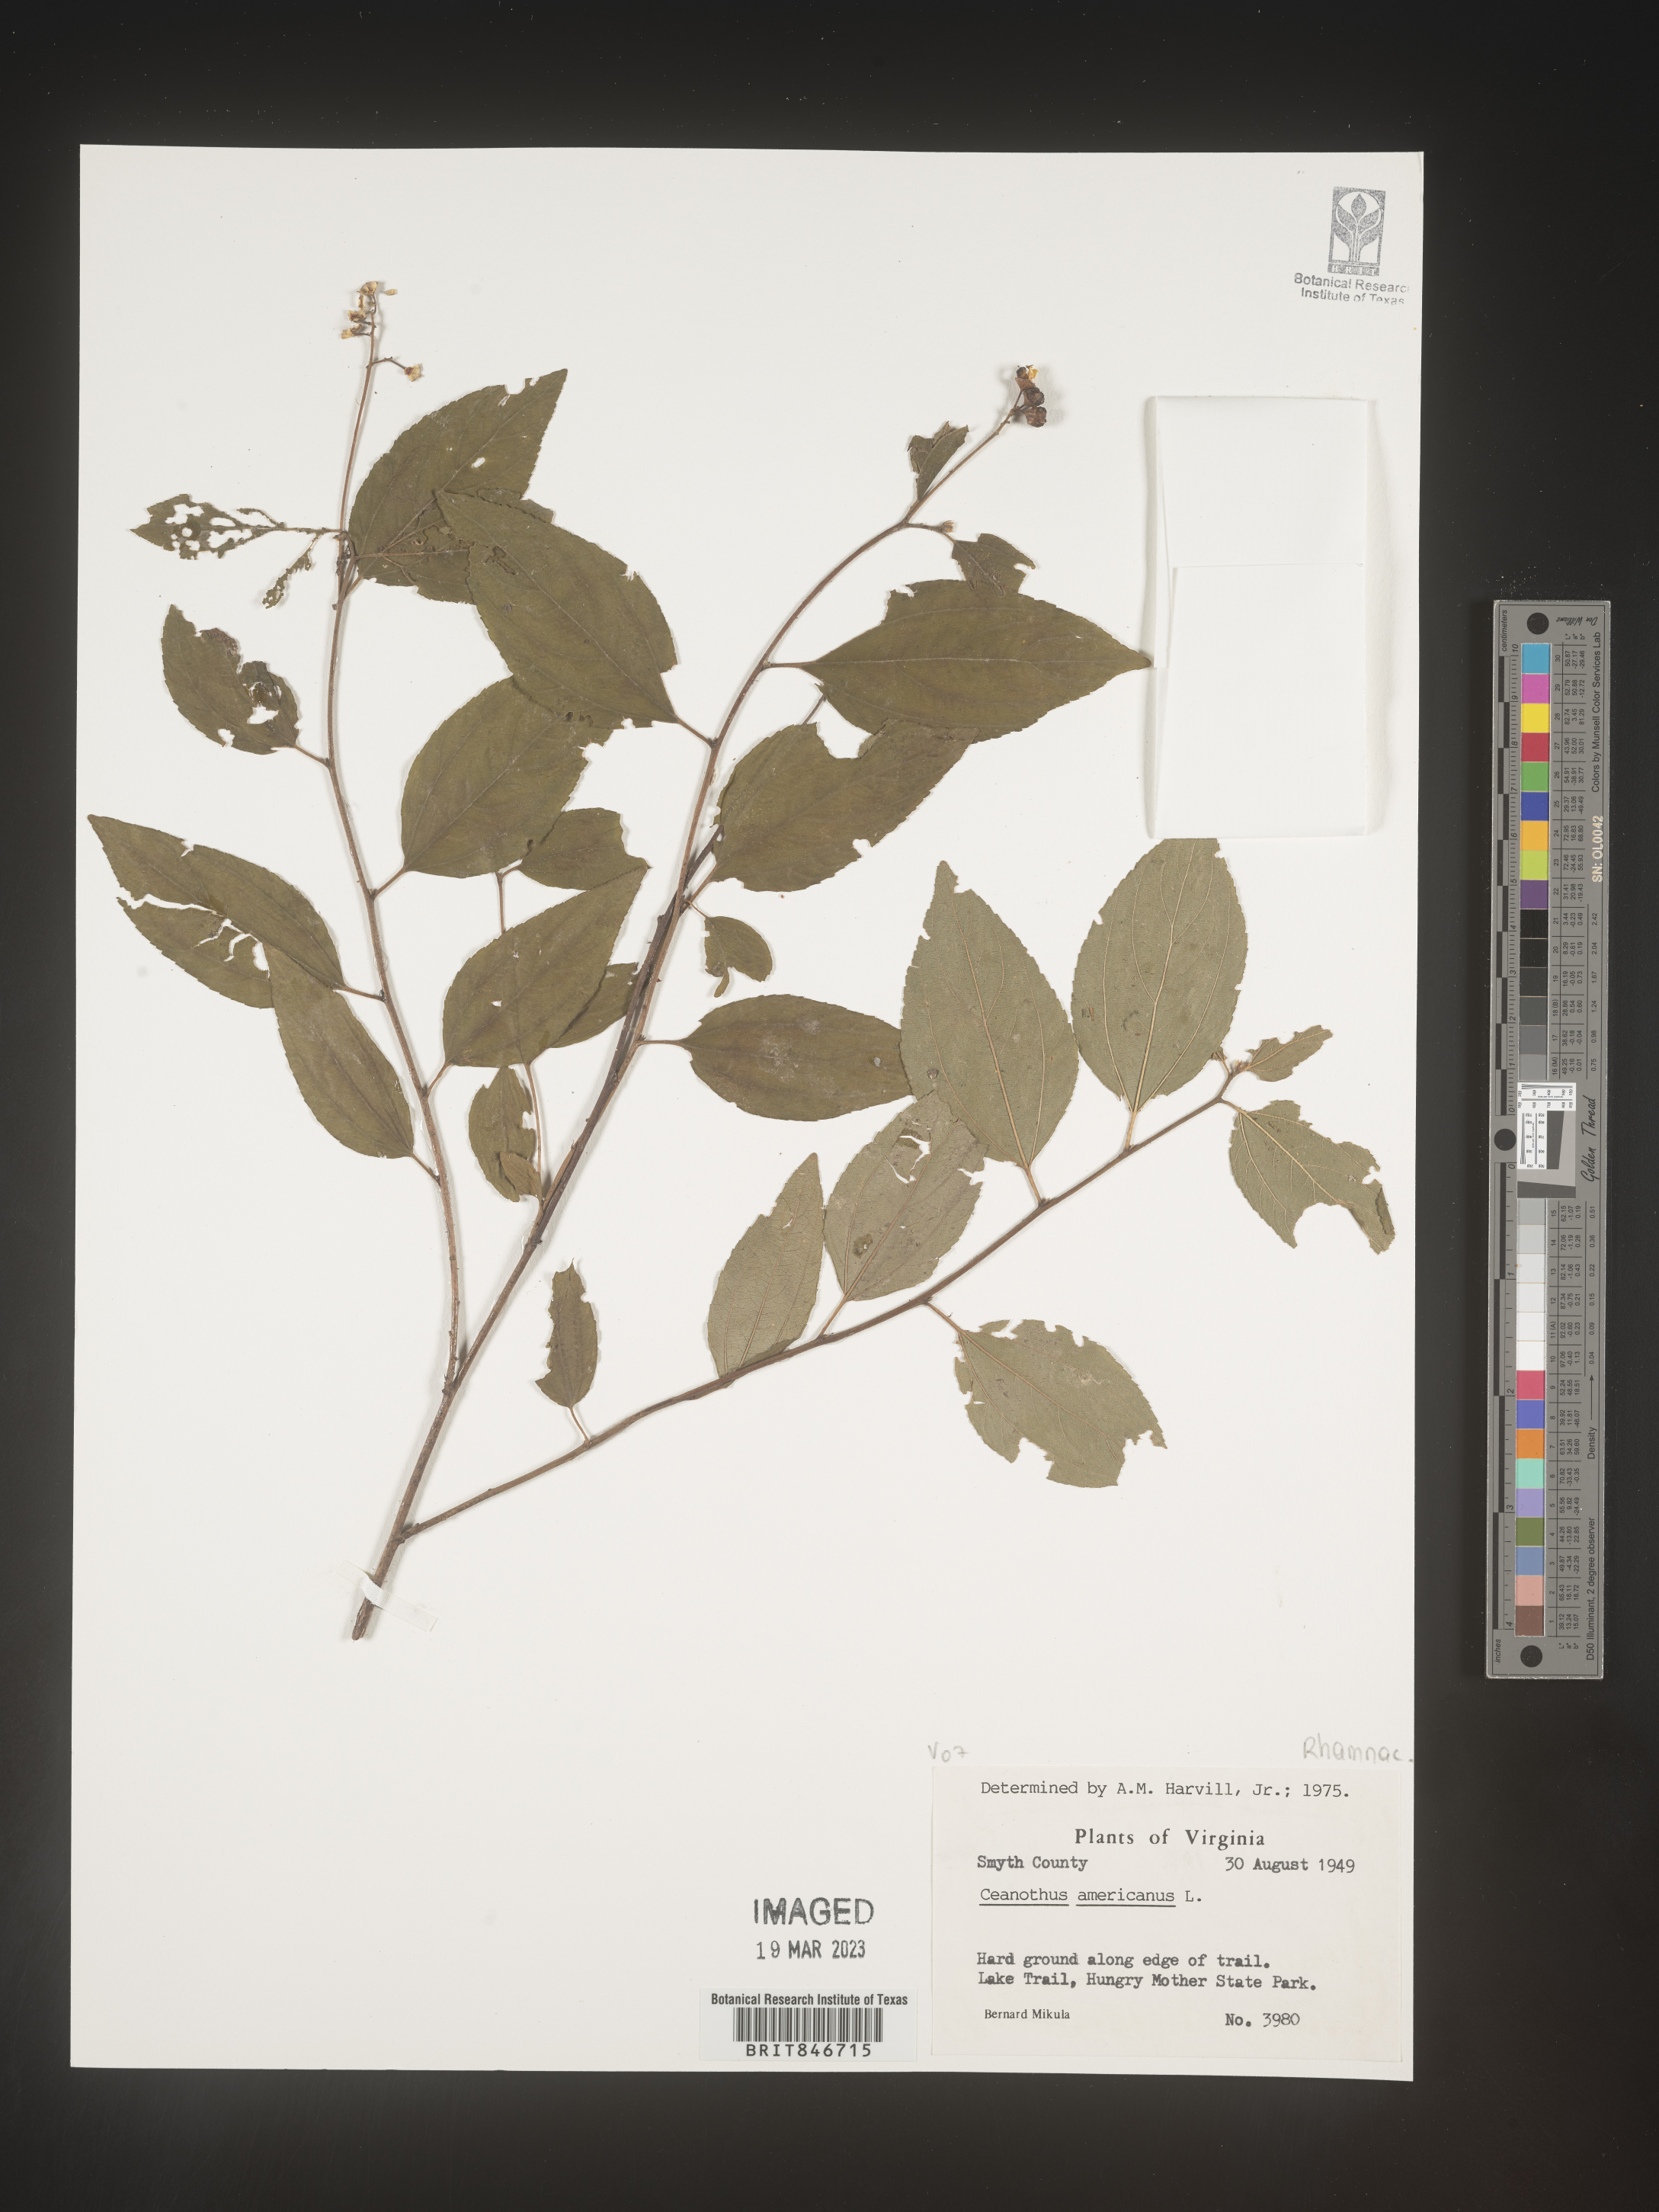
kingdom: Plantae
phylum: Tracheophyta
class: Magnoliopsida
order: Rosales
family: Rhamnaceae
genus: Ceanothus
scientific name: Ceanothus americanus
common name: Redroot
